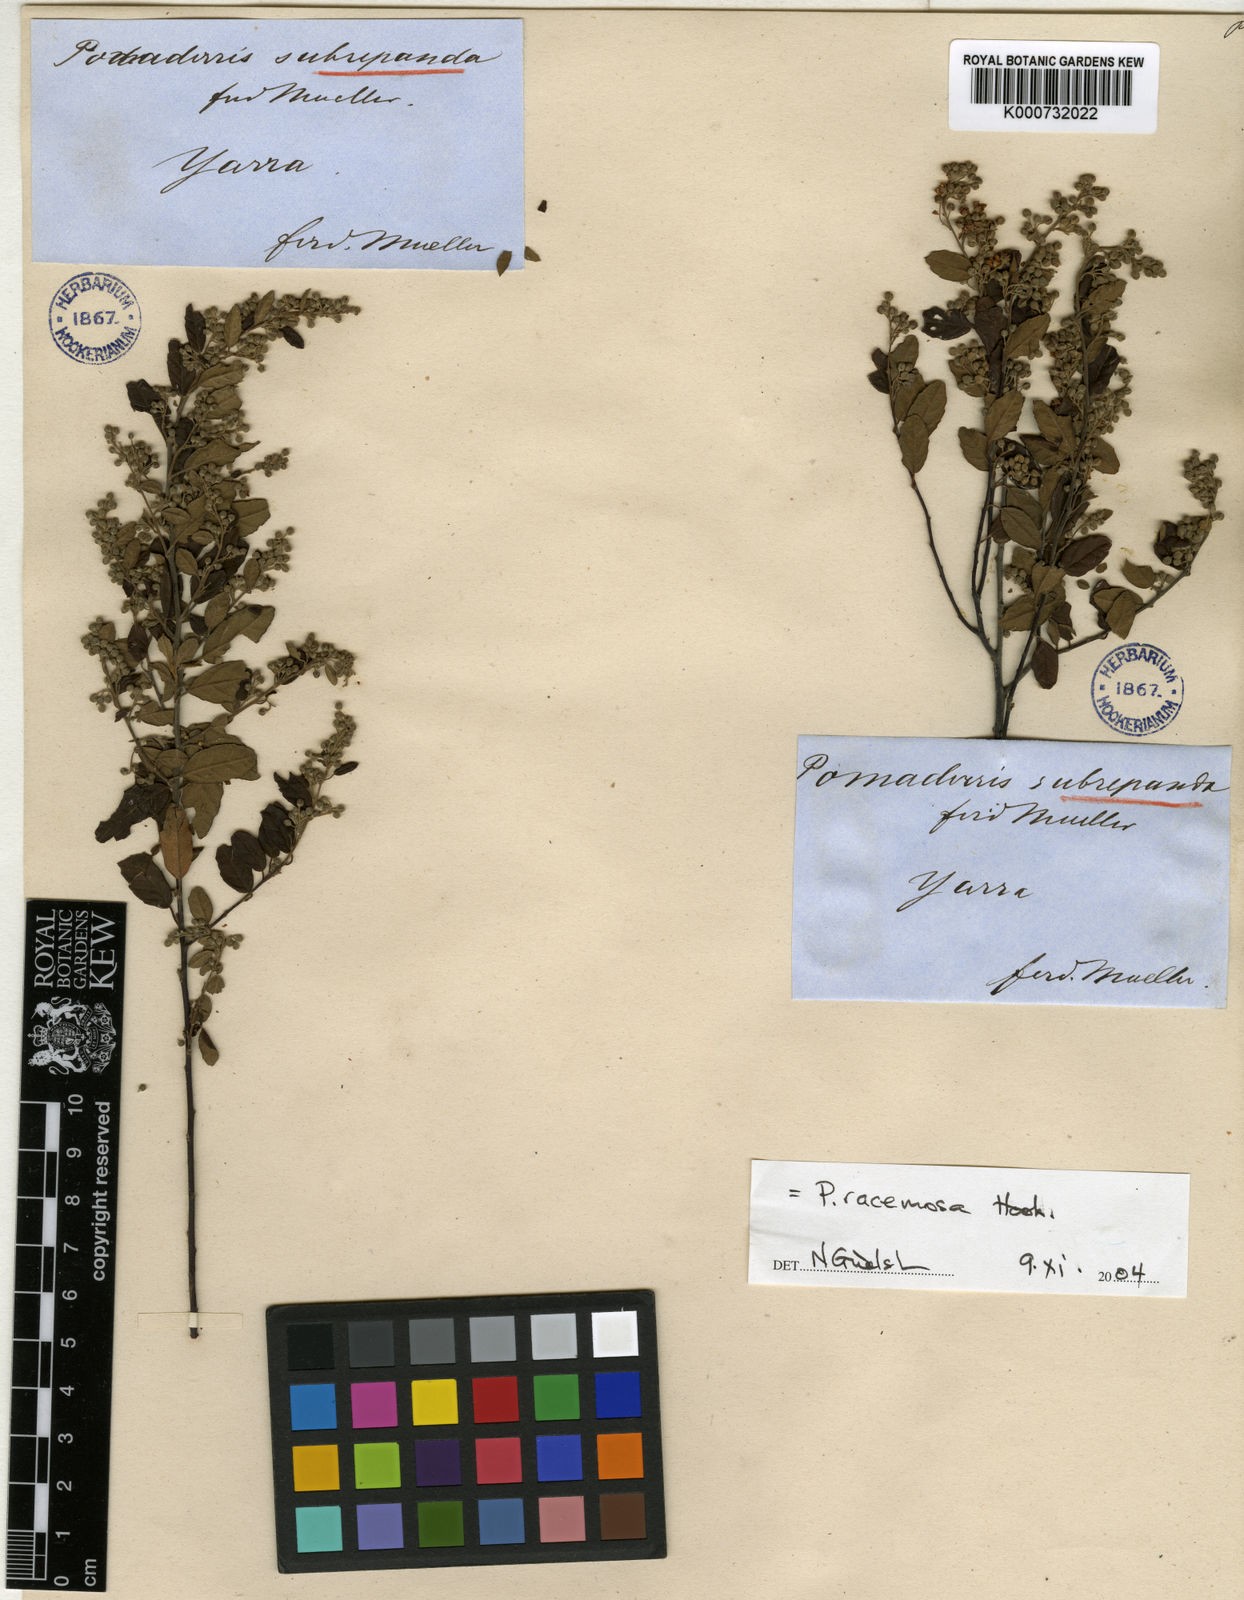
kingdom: Plantae
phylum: Tracheophyta
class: Magnoliopsida
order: Rosales
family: Rhamnaceae
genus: Pomaderris
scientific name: Pomaderris
